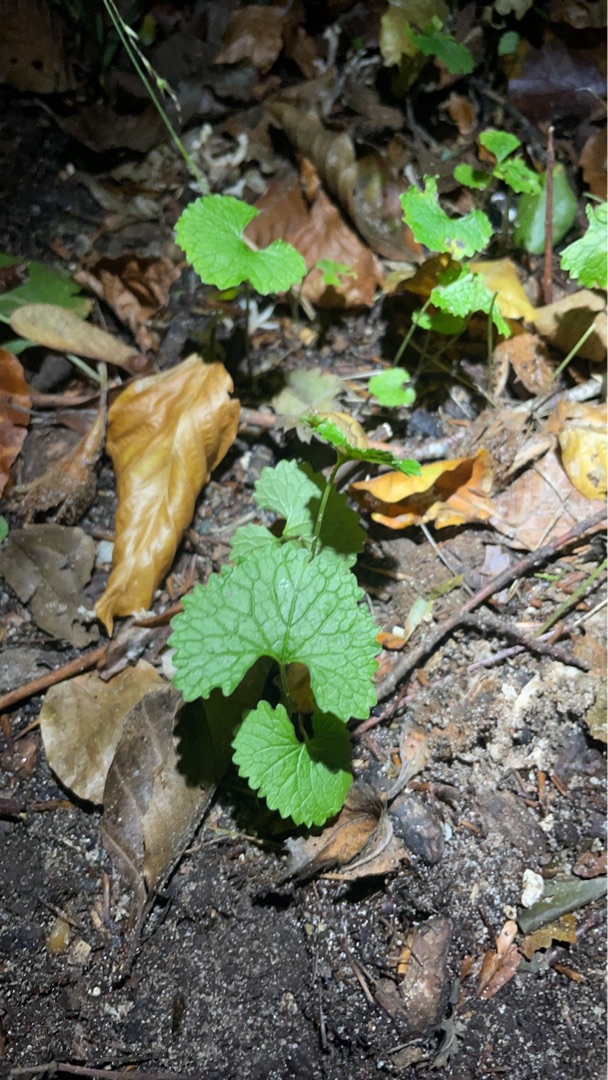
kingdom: Plantae
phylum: Tracheophyta
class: Magnoliopsida
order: Brassicales
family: Brassicaceae
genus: Alliaria
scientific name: Alliaria petiolata
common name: Løgkarse
